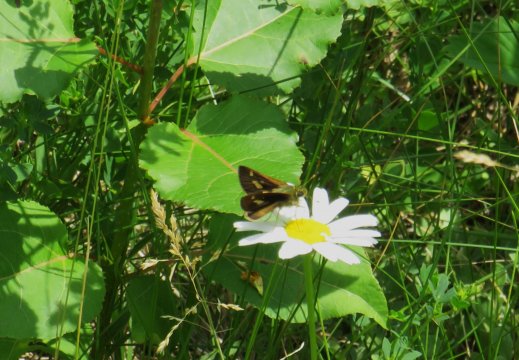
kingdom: Animalia
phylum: Arthropoda
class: Insecta
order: Lepidoptera
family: Hesperiidae
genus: Vernia
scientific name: Vernia verna
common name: Little Glassywing
